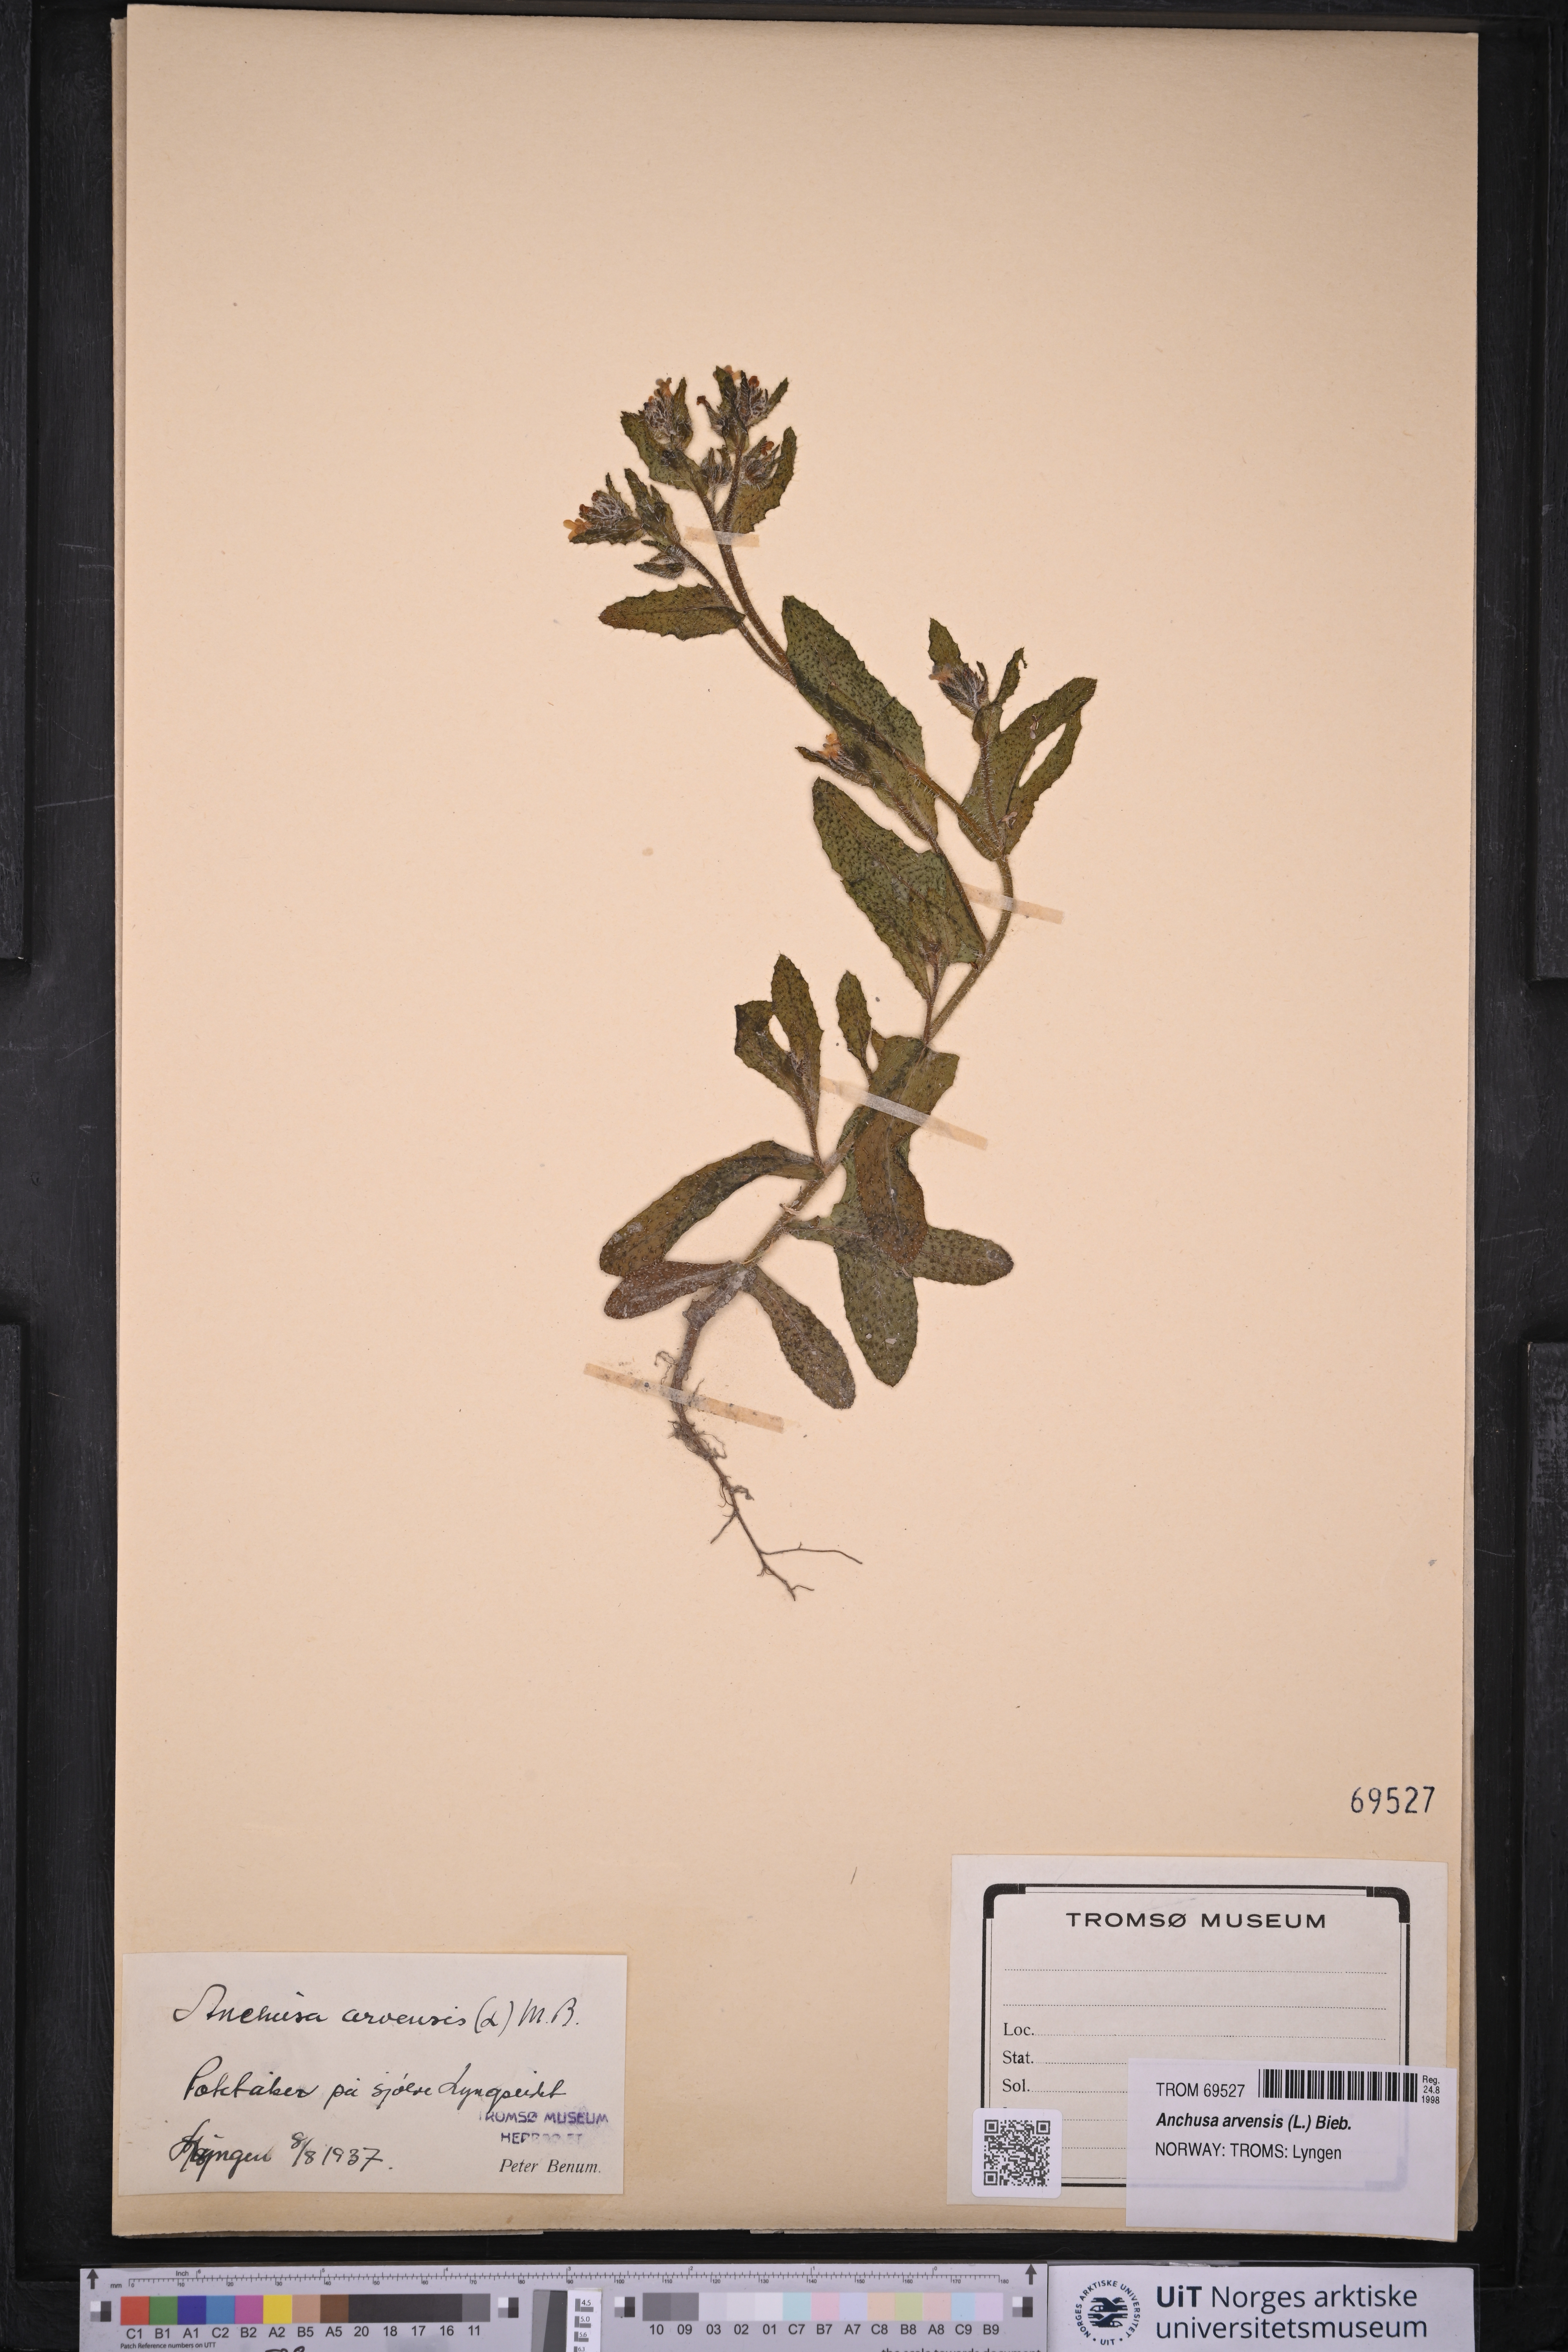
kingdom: Plantae
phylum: Tracheophyta
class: Magnoliopsida
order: Boraginales
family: Boraginaceae
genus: Lycopsis
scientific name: Lycopsis arvensis
